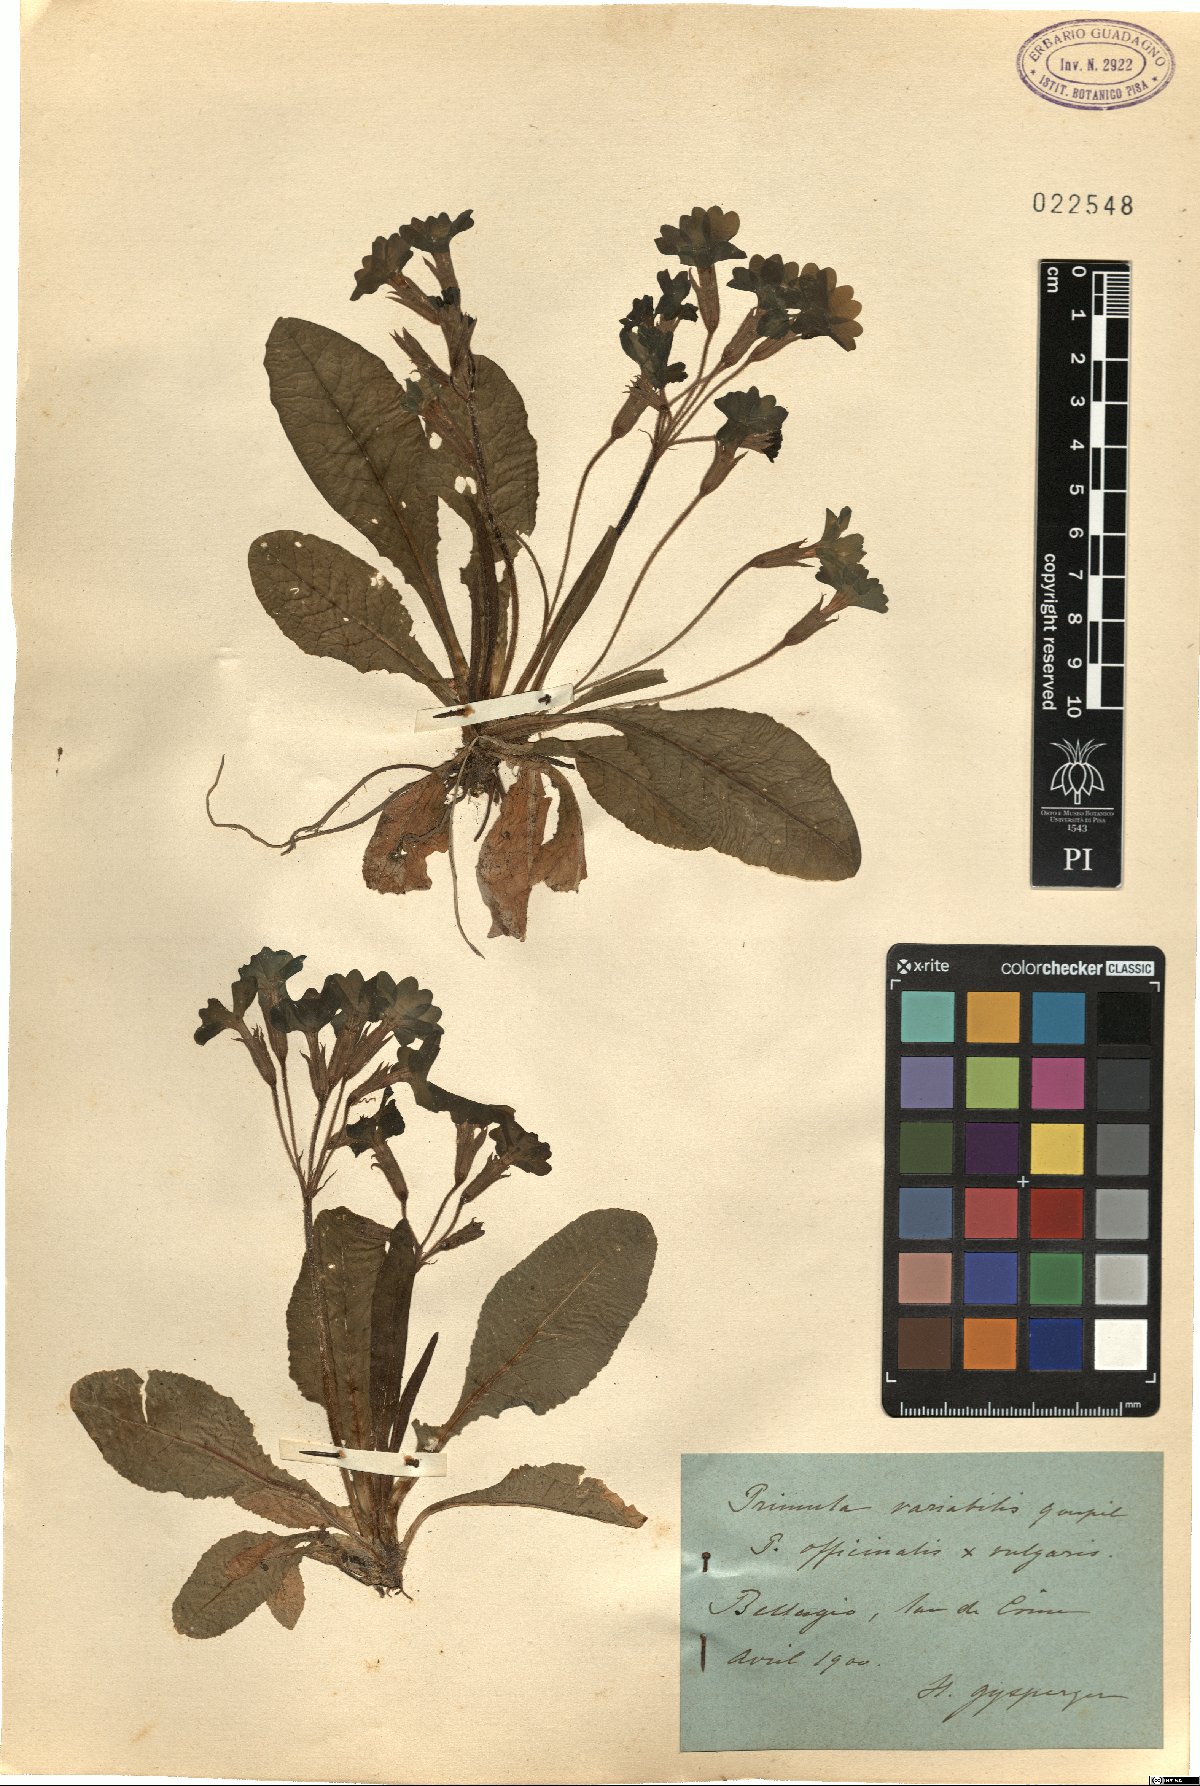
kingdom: Plantae
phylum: Tracheophyta
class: Magnoliopsida
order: Ericales
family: Primulaceae
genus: Primula
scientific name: Primula polyantha
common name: False oxlip
